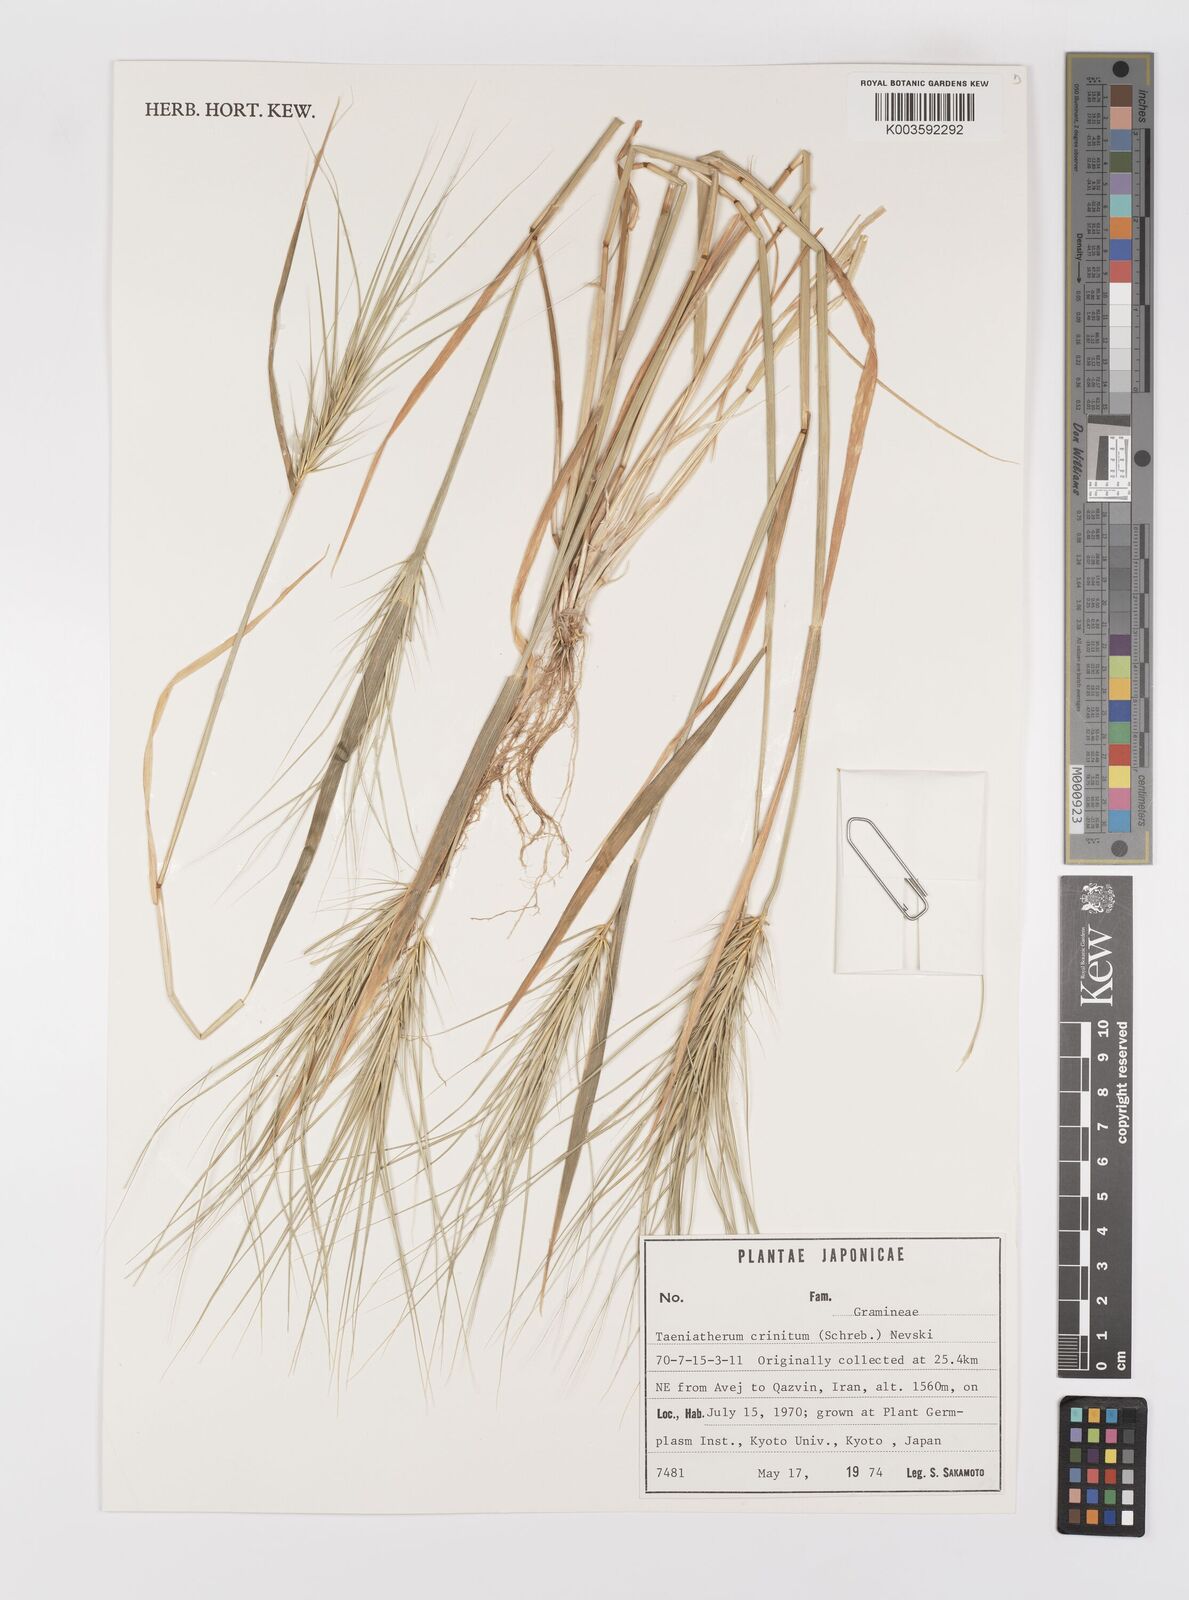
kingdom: Plantae
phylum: Tracheophyta
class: Liliopsida
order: Poales
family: Poaceae
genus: Taeniatherum
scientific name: Taeniatherum caput-medusae
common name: Medusahead
